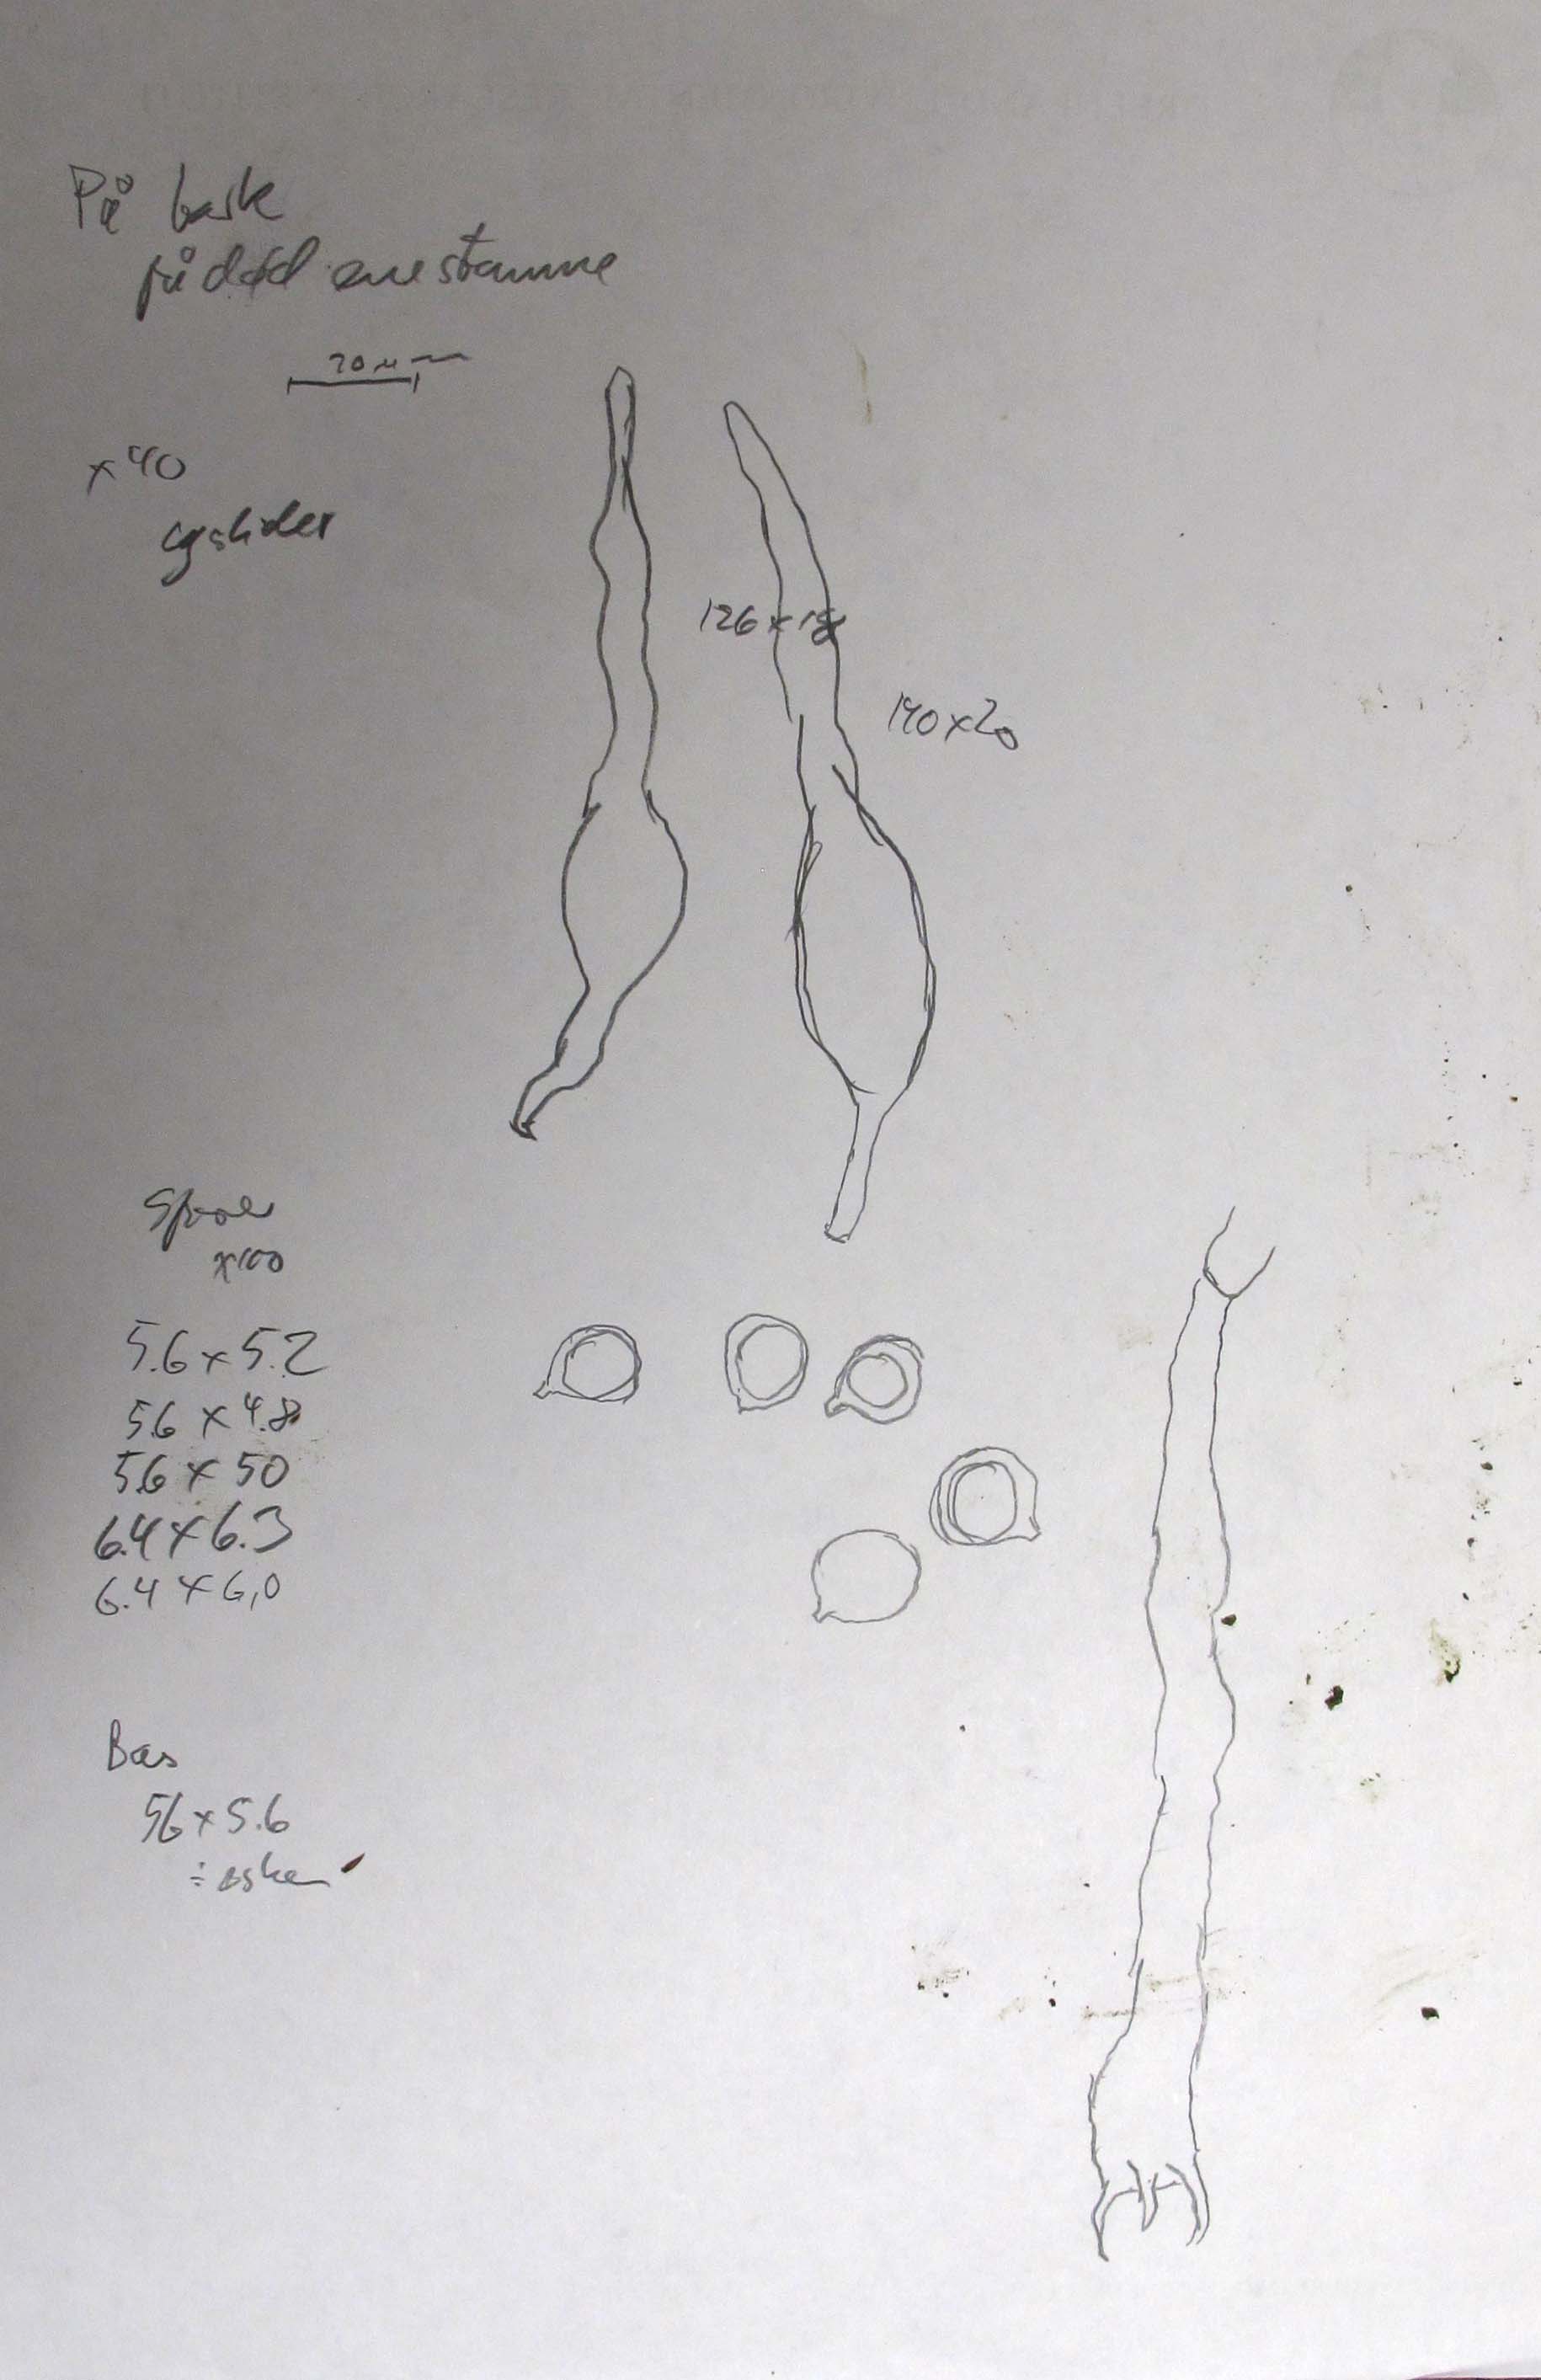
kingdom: Fungi
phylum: Basidiomycota
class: Agaricomycetes
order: Russulales
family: Peniophoraceae
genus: Gloiothele
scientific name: Gloiothele citrina
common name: citronskorpe
